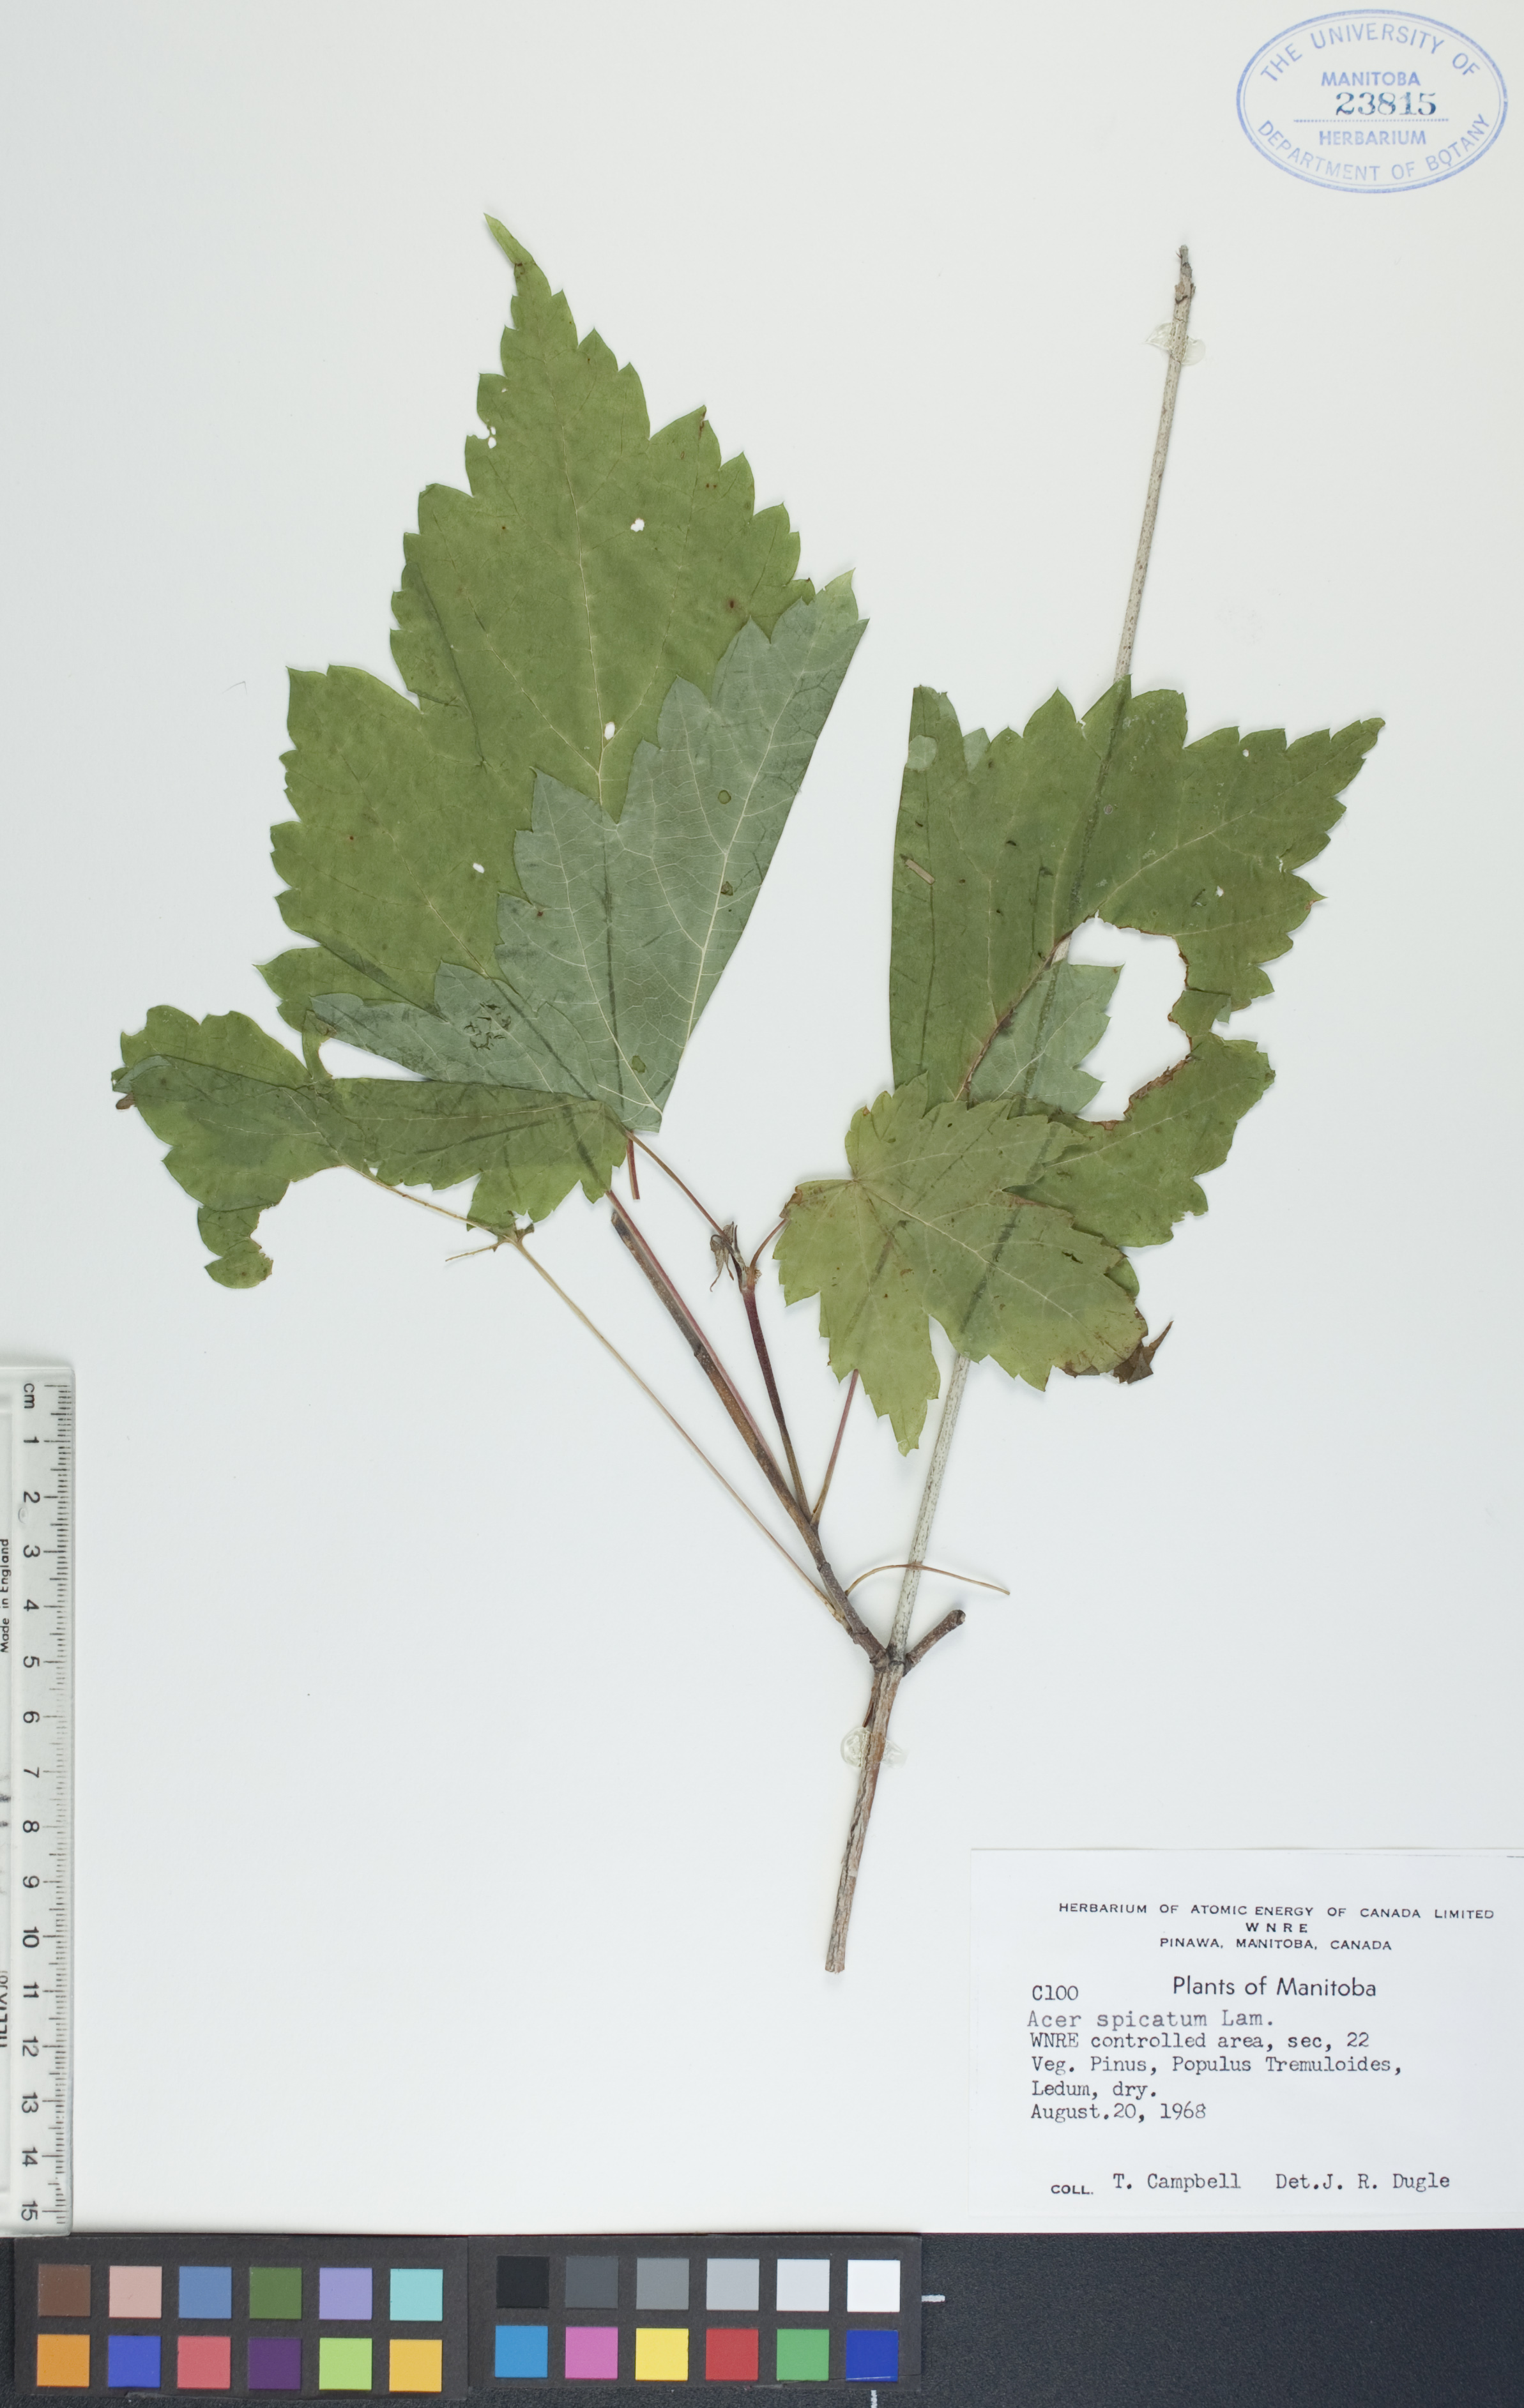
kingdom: Plantae
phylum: Tracheophyta
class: Magnoliopsida
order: Sapindales
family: Sapindaceae
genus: Acer
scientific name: Acer spicatum
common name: Mountain maple
